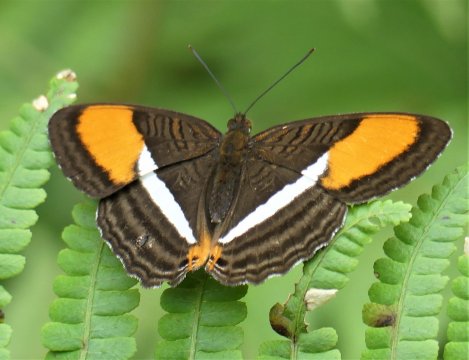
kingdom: Animalia
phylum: Arthropoda
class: Insecta
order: Lepidoptera
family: Nymphalidae
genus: Limenitis
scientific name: Limenitis cytherea
